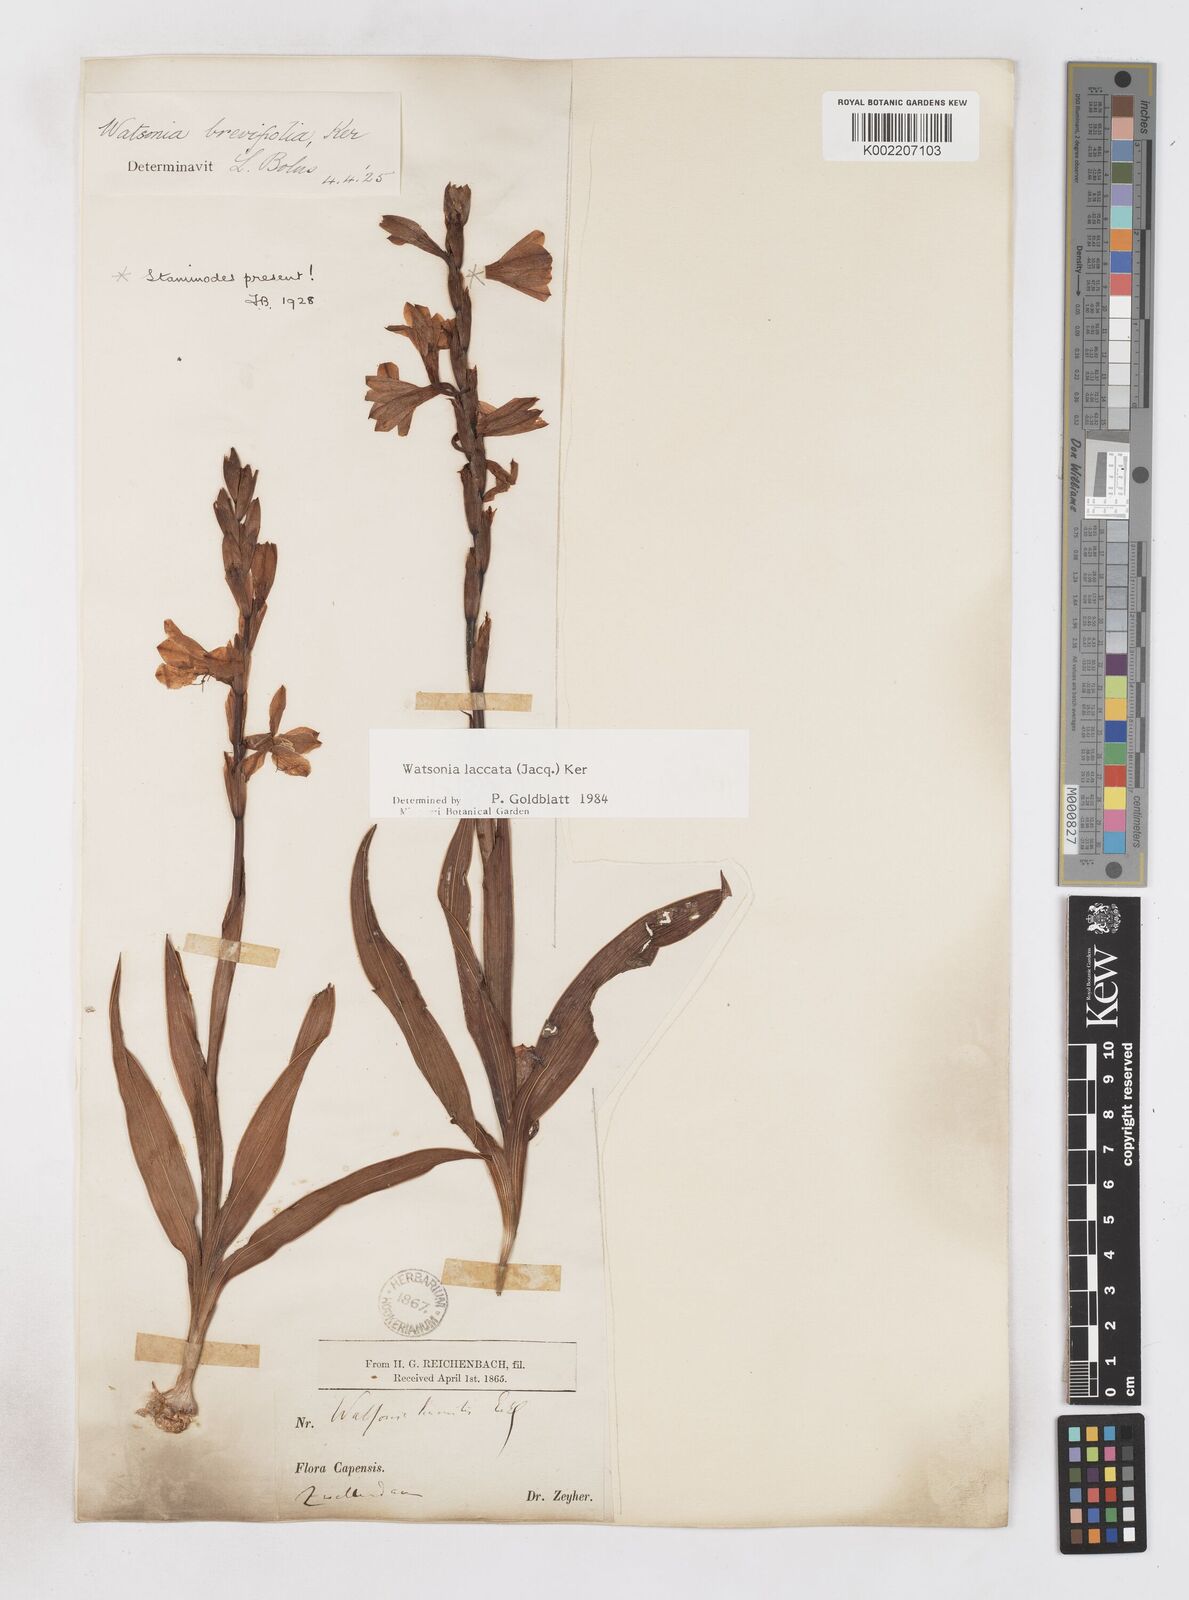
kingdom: Plantae
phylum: Tracheophyta
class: Liliopsida
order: Asparagales
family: Iridaceae
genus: Watsonia
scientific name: Watsonia laccata
